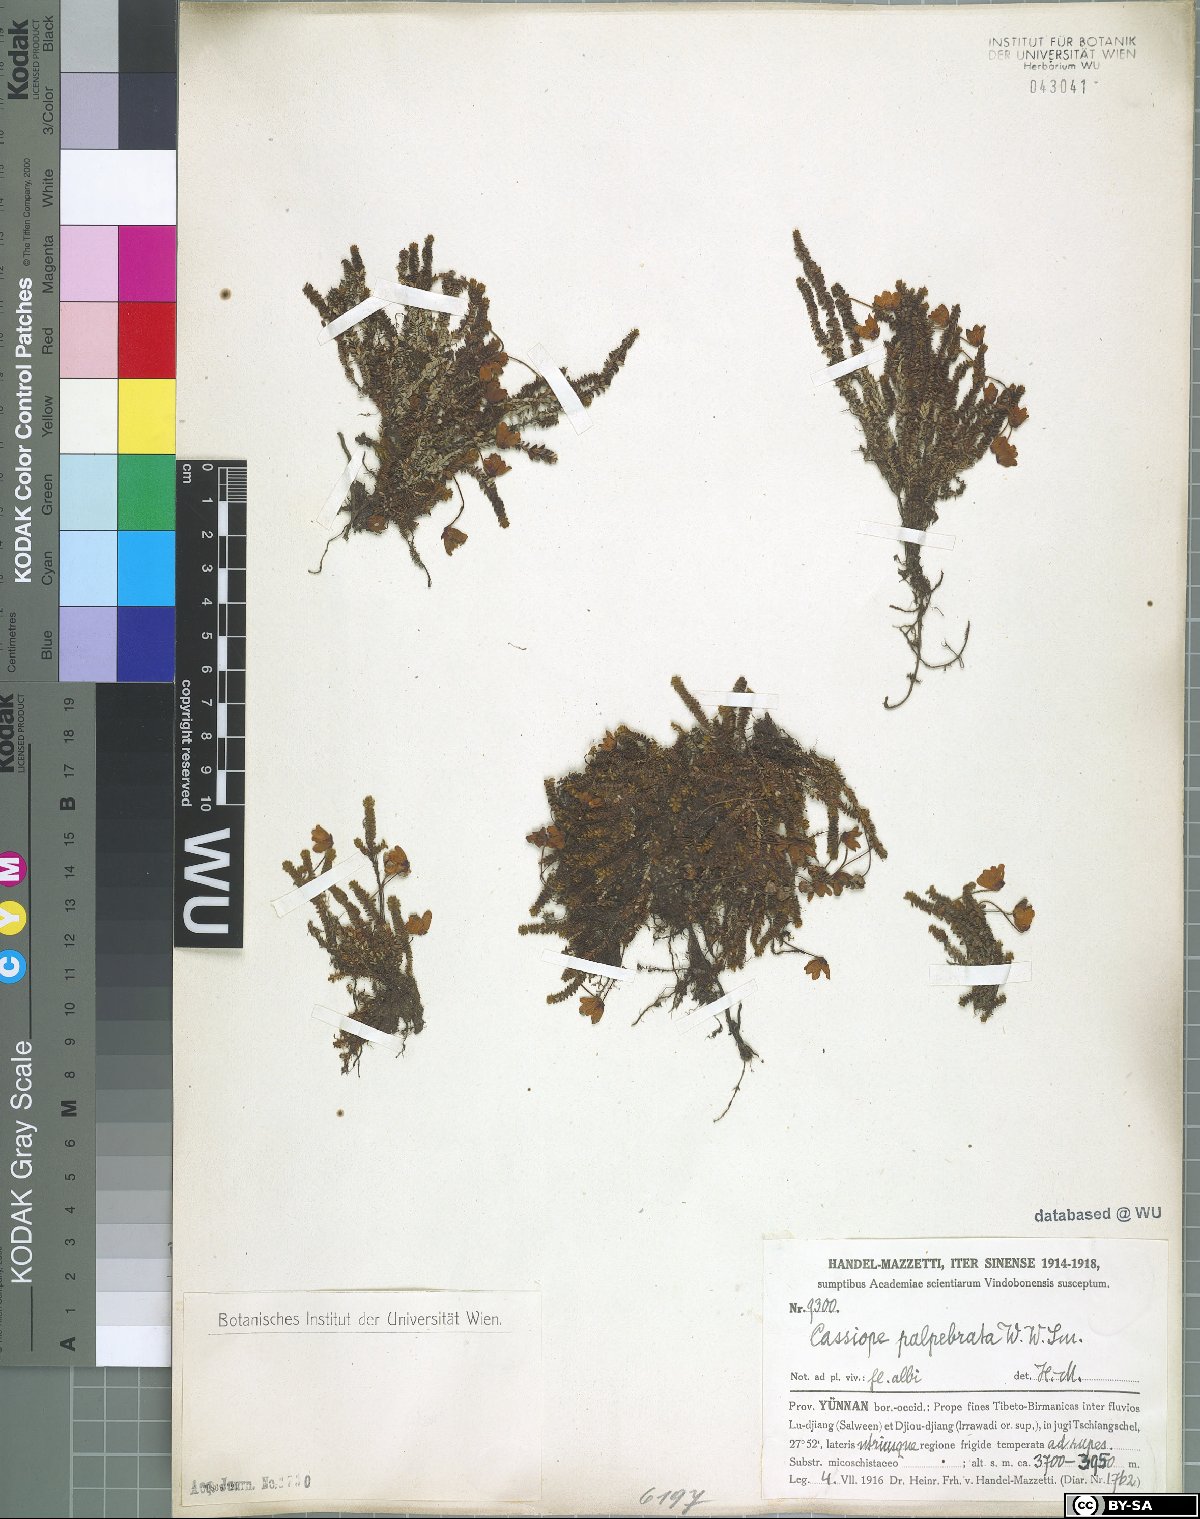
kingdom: Plantae
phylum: Tracheophyta
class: Magnoliopsida
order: Ericales
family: Ericaceae
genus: Cassiope
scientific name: Cassiope palpebrata
